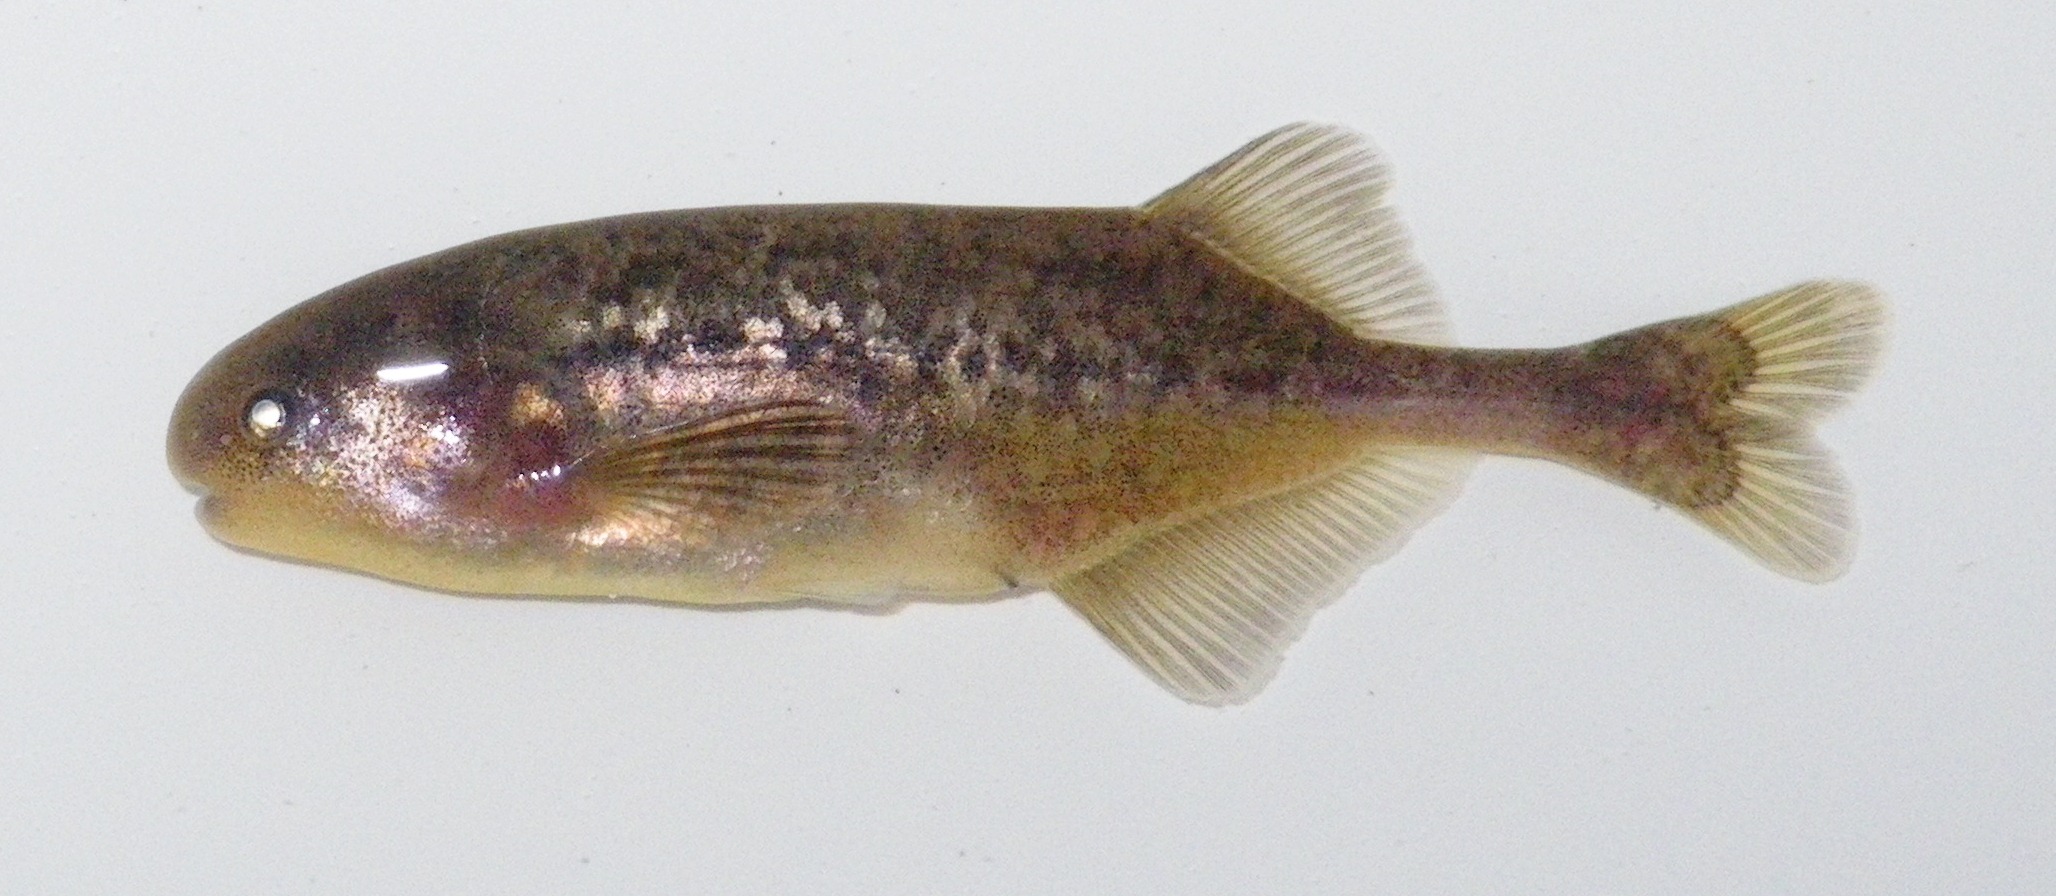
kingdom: Animalia
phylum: Chordata
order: Osteoglossiformes
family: Mormyridae
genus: Pollimyrus
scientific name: Pollimyrus stappersii
